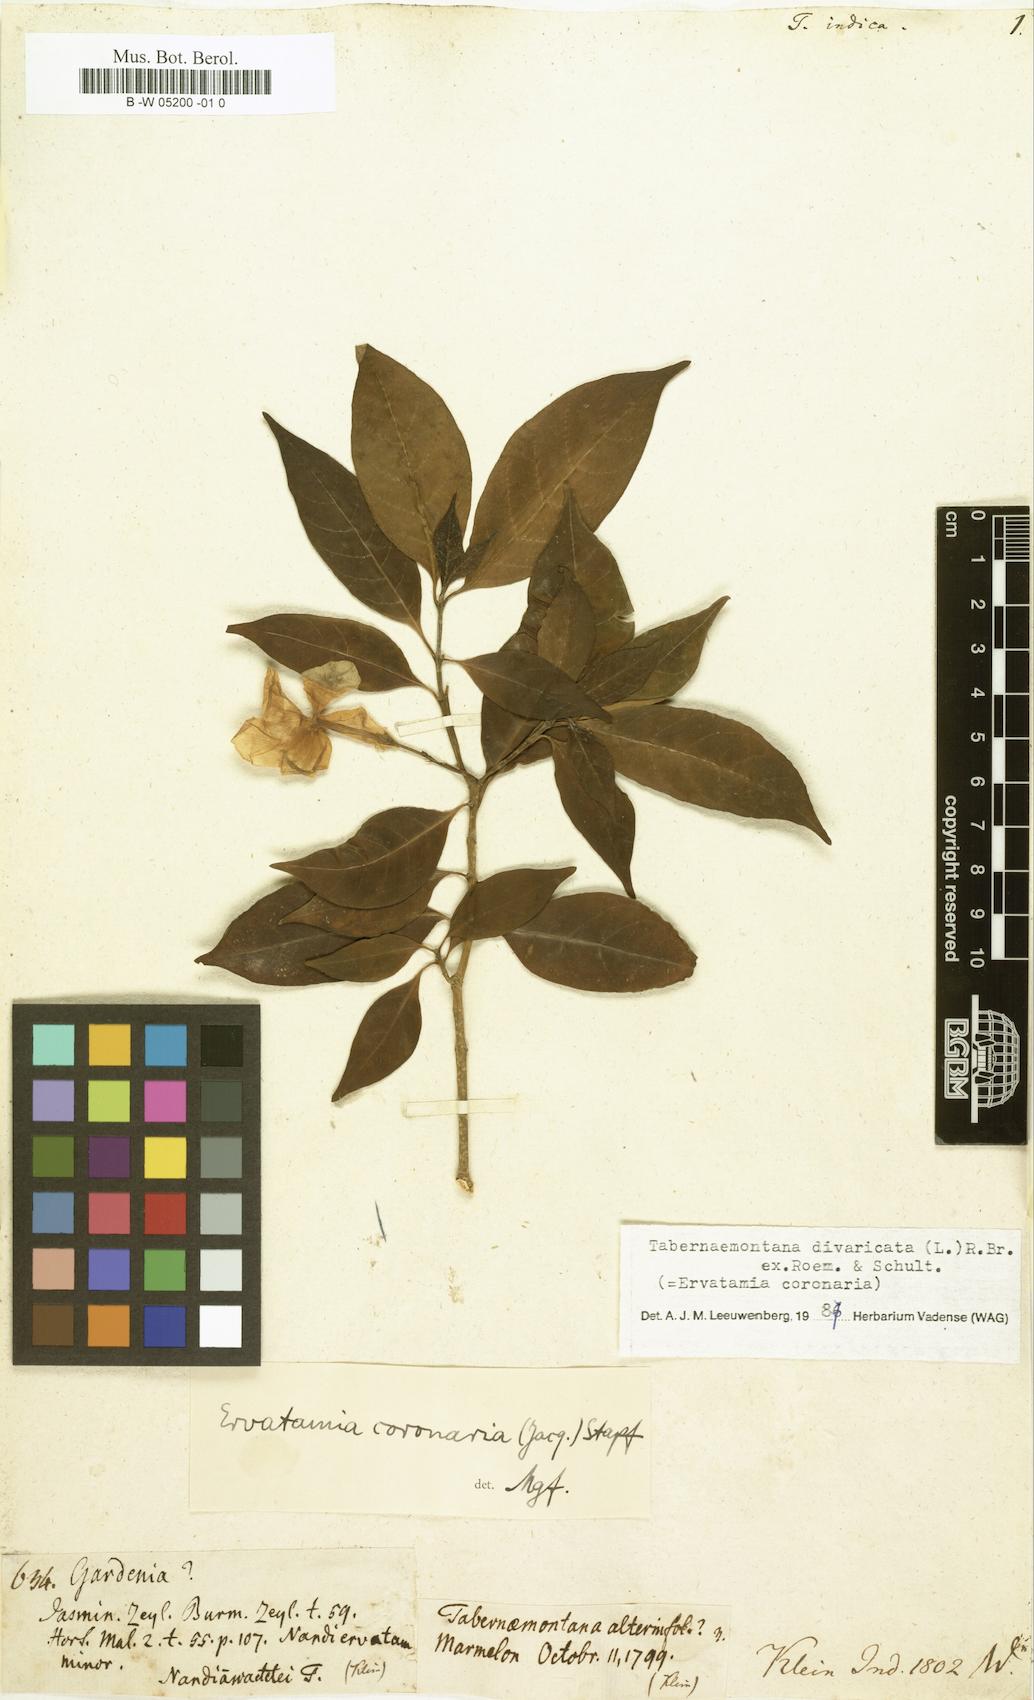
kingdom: Plantae
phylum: Tracheophyta
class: Magnoliopsida
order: Gentianales
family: Apocynaceae
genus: Tabernaemontana
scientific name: Tabernaemontana indica
